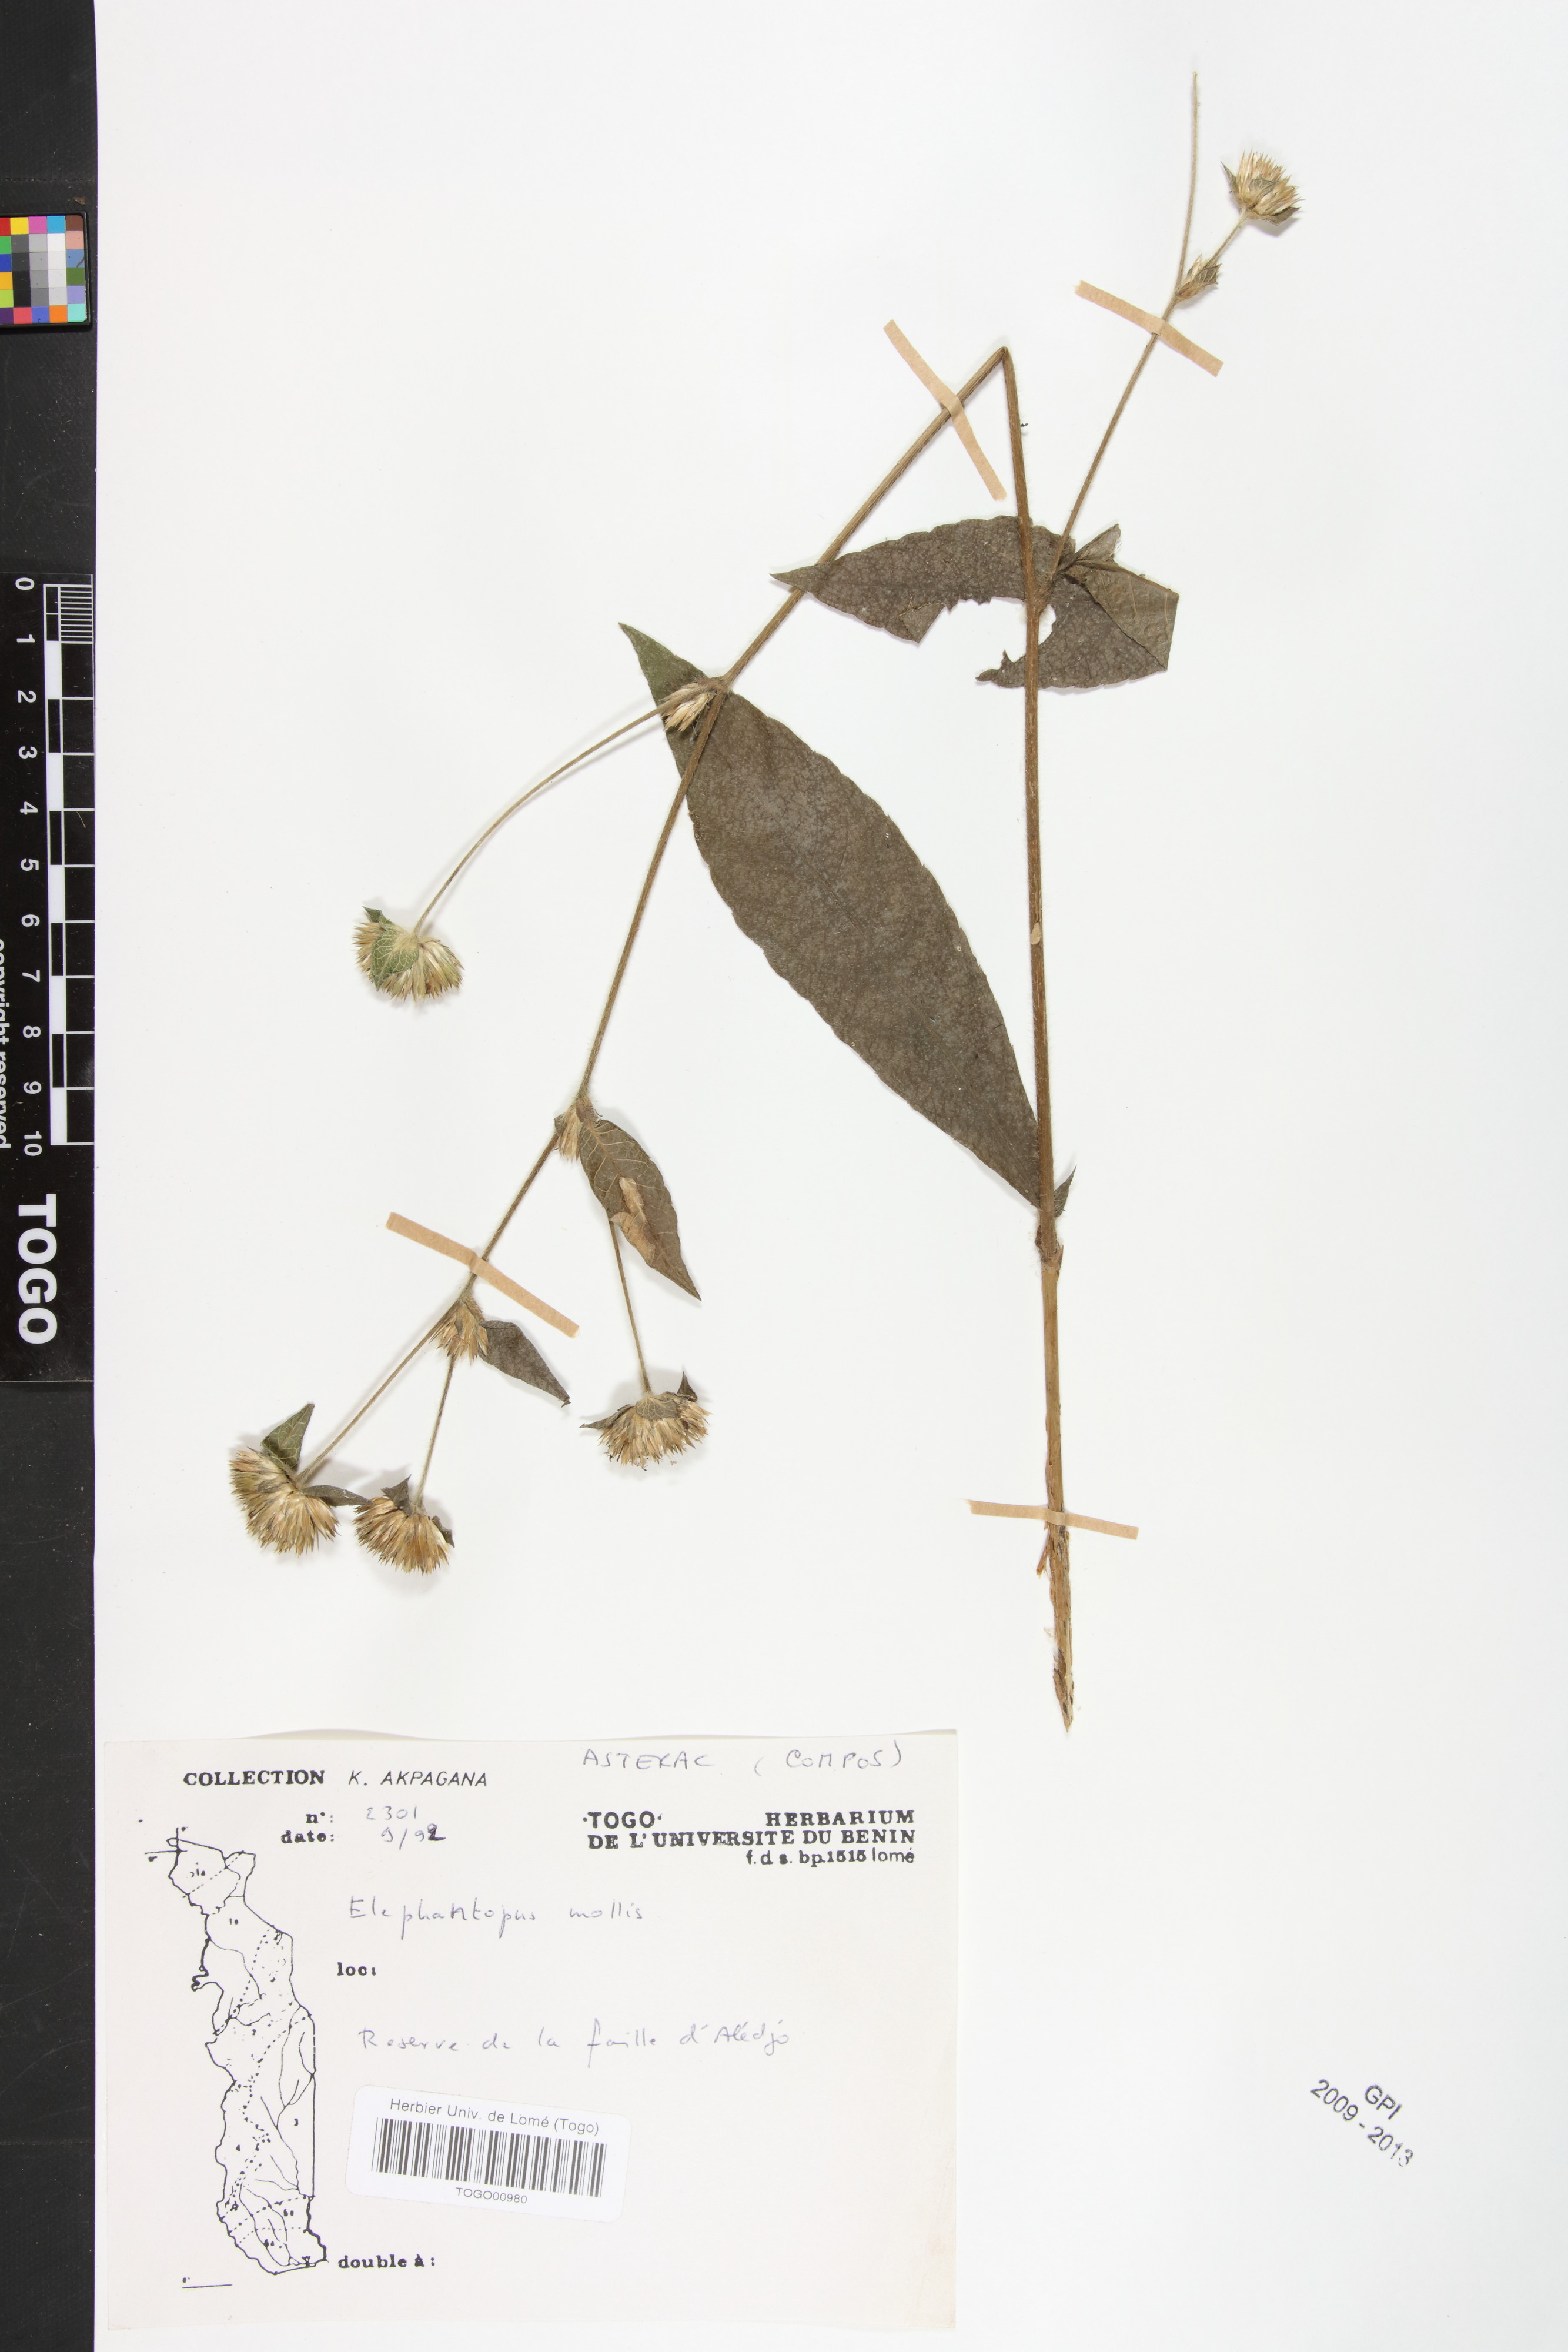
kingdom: Plantae
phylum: Tracheophyta
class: Magnoliopsida
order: Asterales
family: Asteraceae
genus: Elephantopus
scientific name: Elephantopus mollis
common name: Soft elephantsfoot
